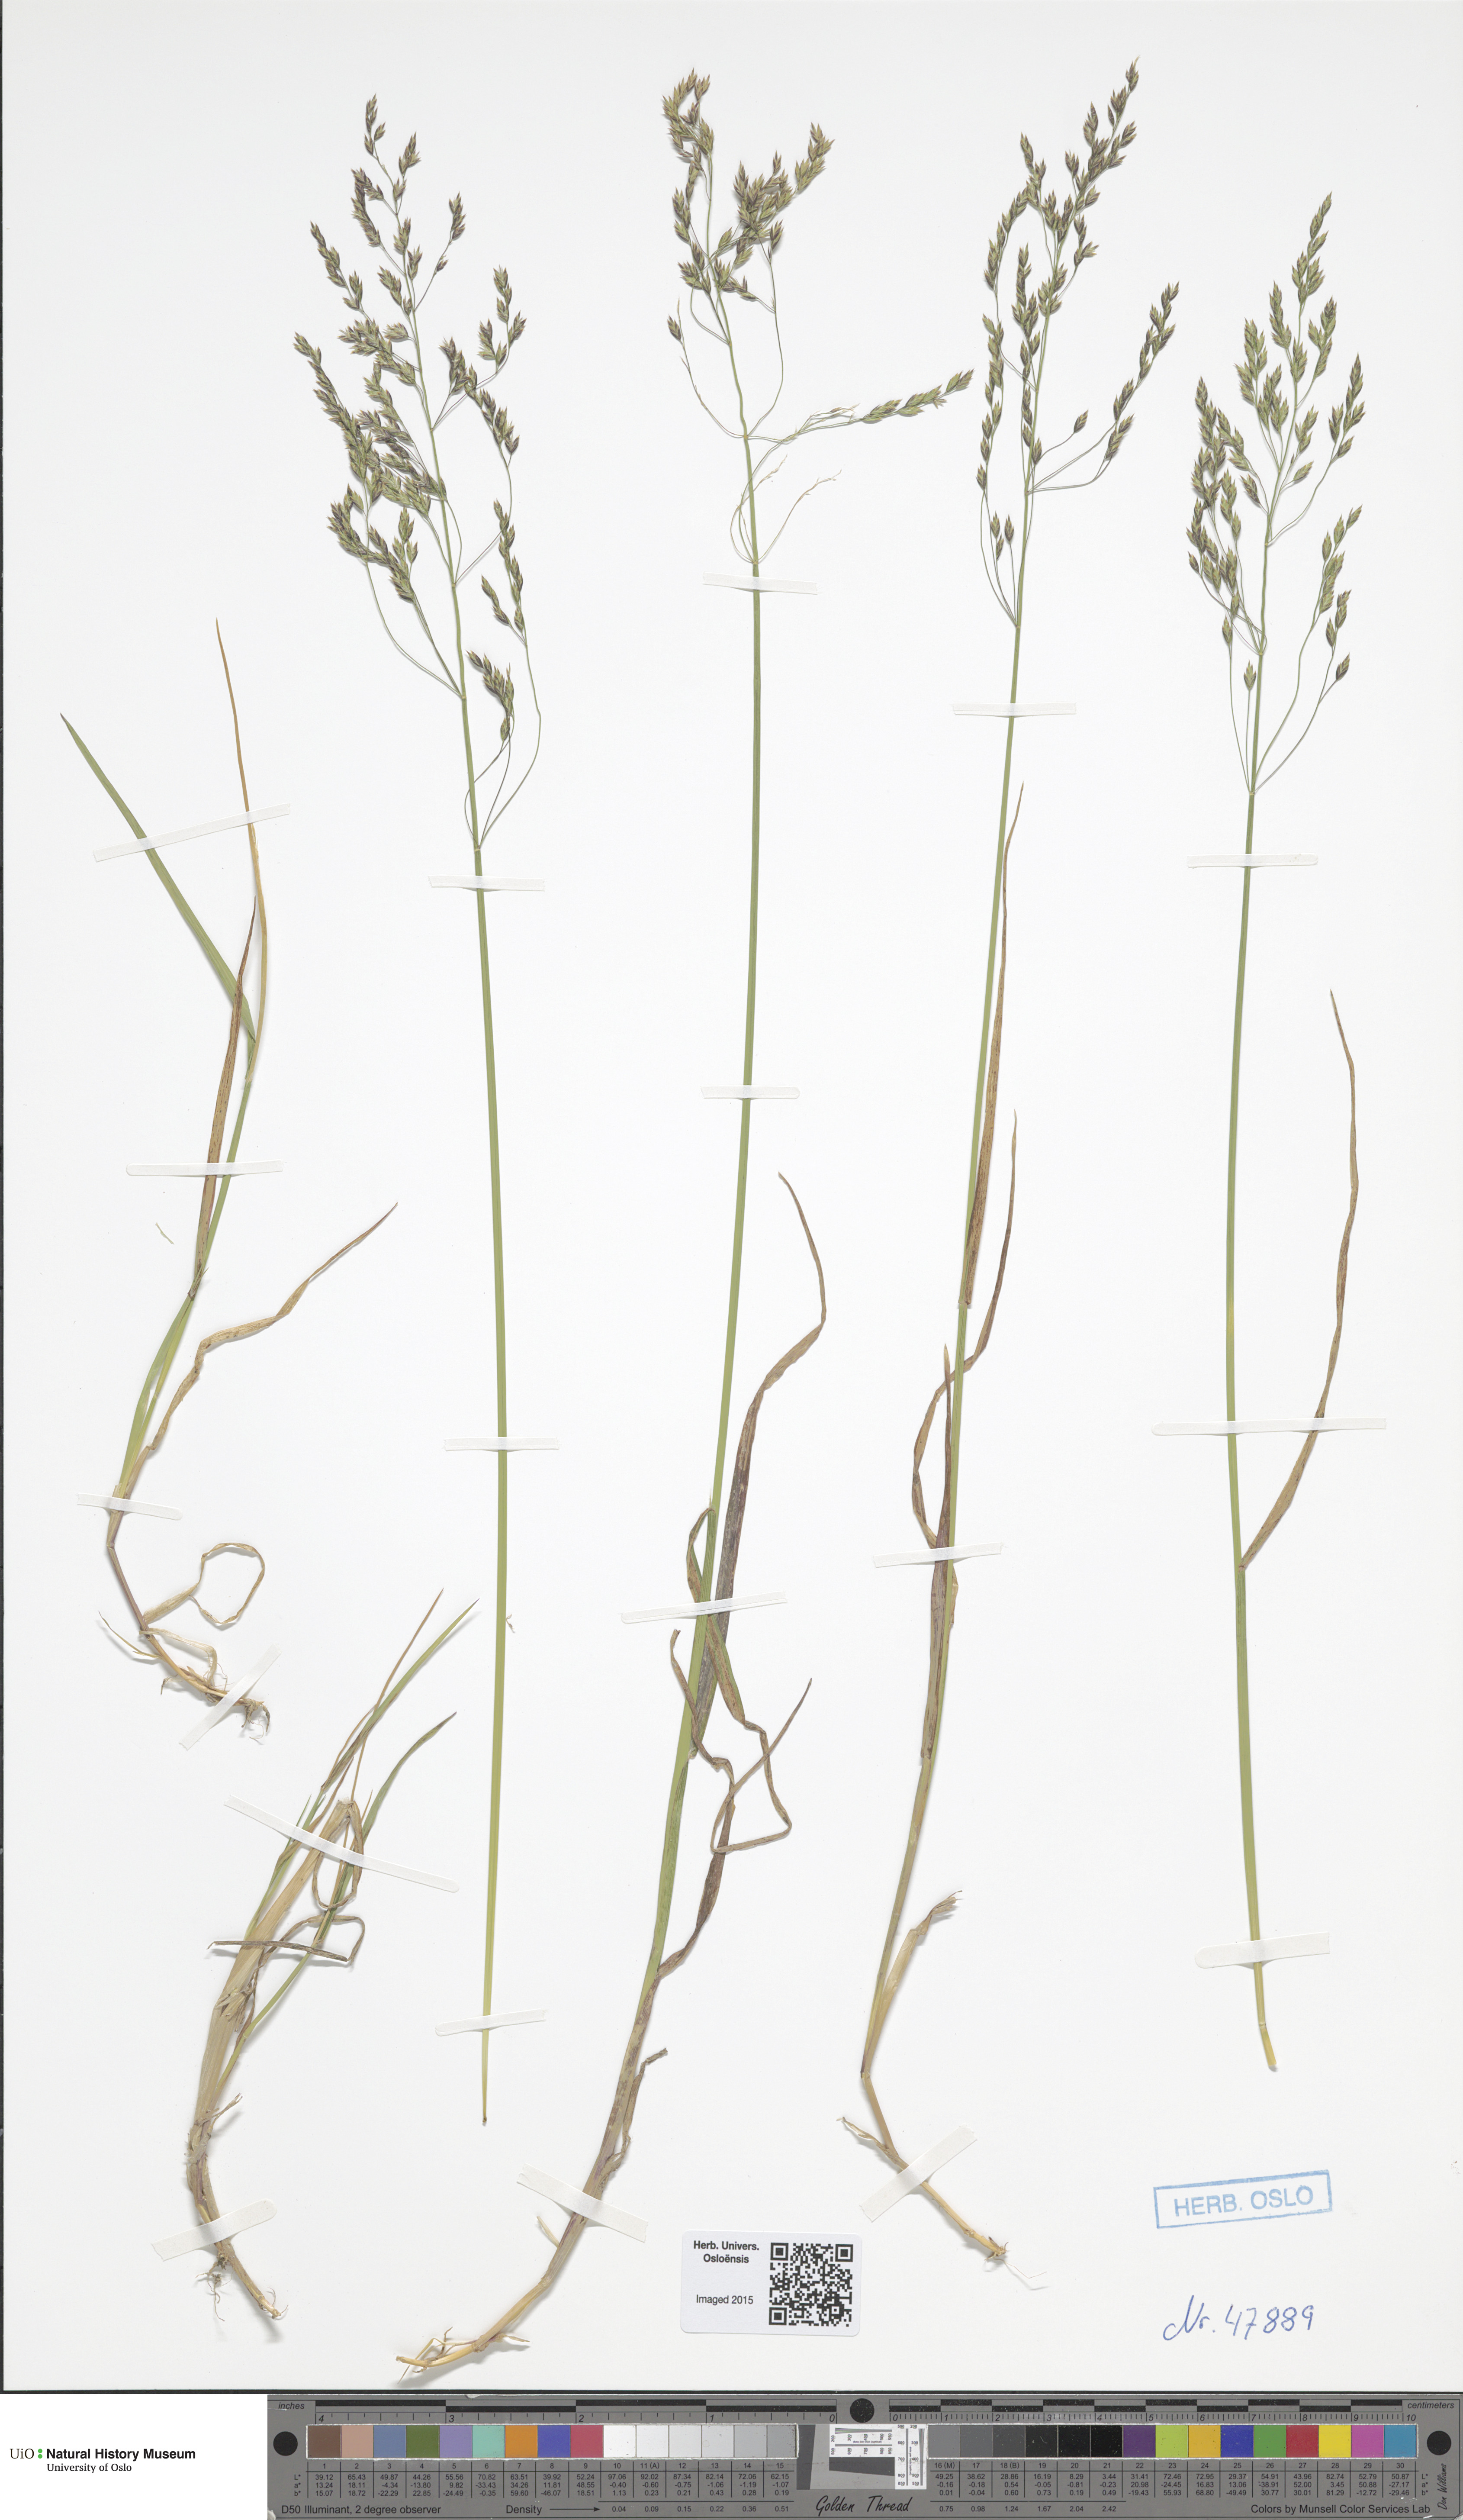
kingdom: Plantae
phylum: Tracheophyta
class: Liliopsida
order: Poales
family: Poaceae
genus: Poa
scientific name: Poa palustris
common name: Swamp meadow-grass
